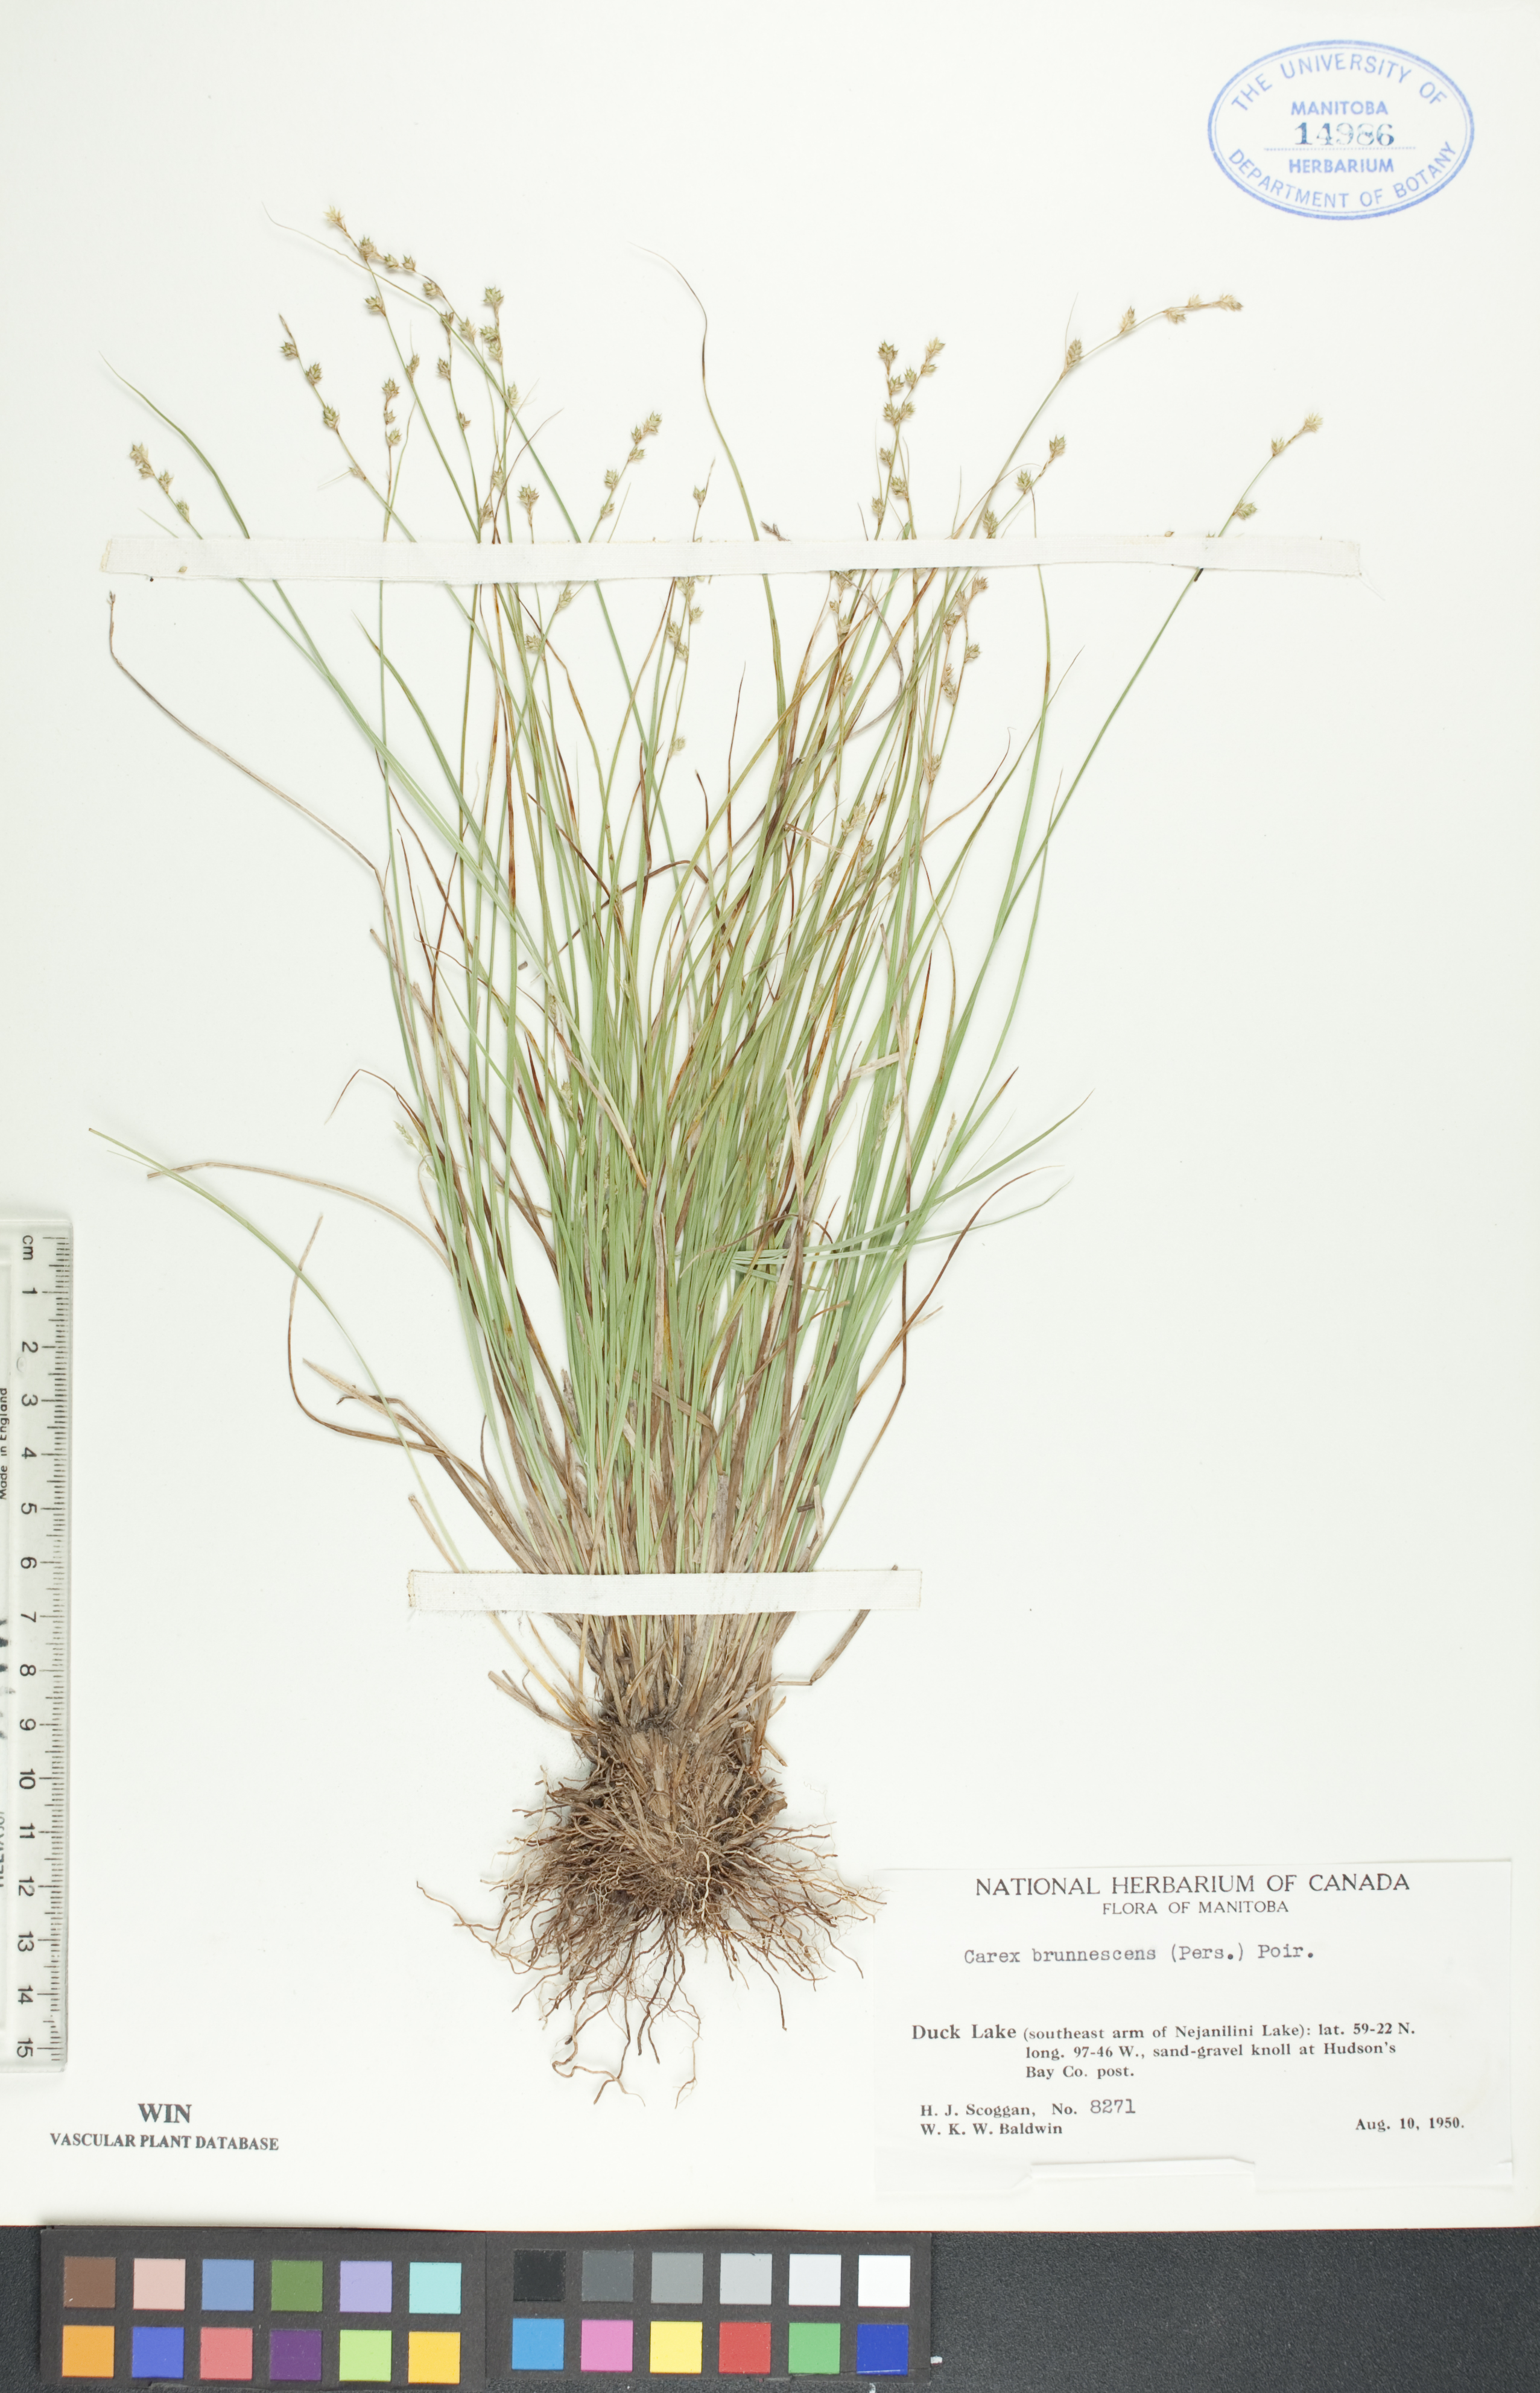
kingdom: Plantae
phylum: Tracheophyta
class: Liliopsida
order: Poales
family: Cyperaceae
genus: Carex
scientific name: Carex brunnescens
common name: Brown sedge
